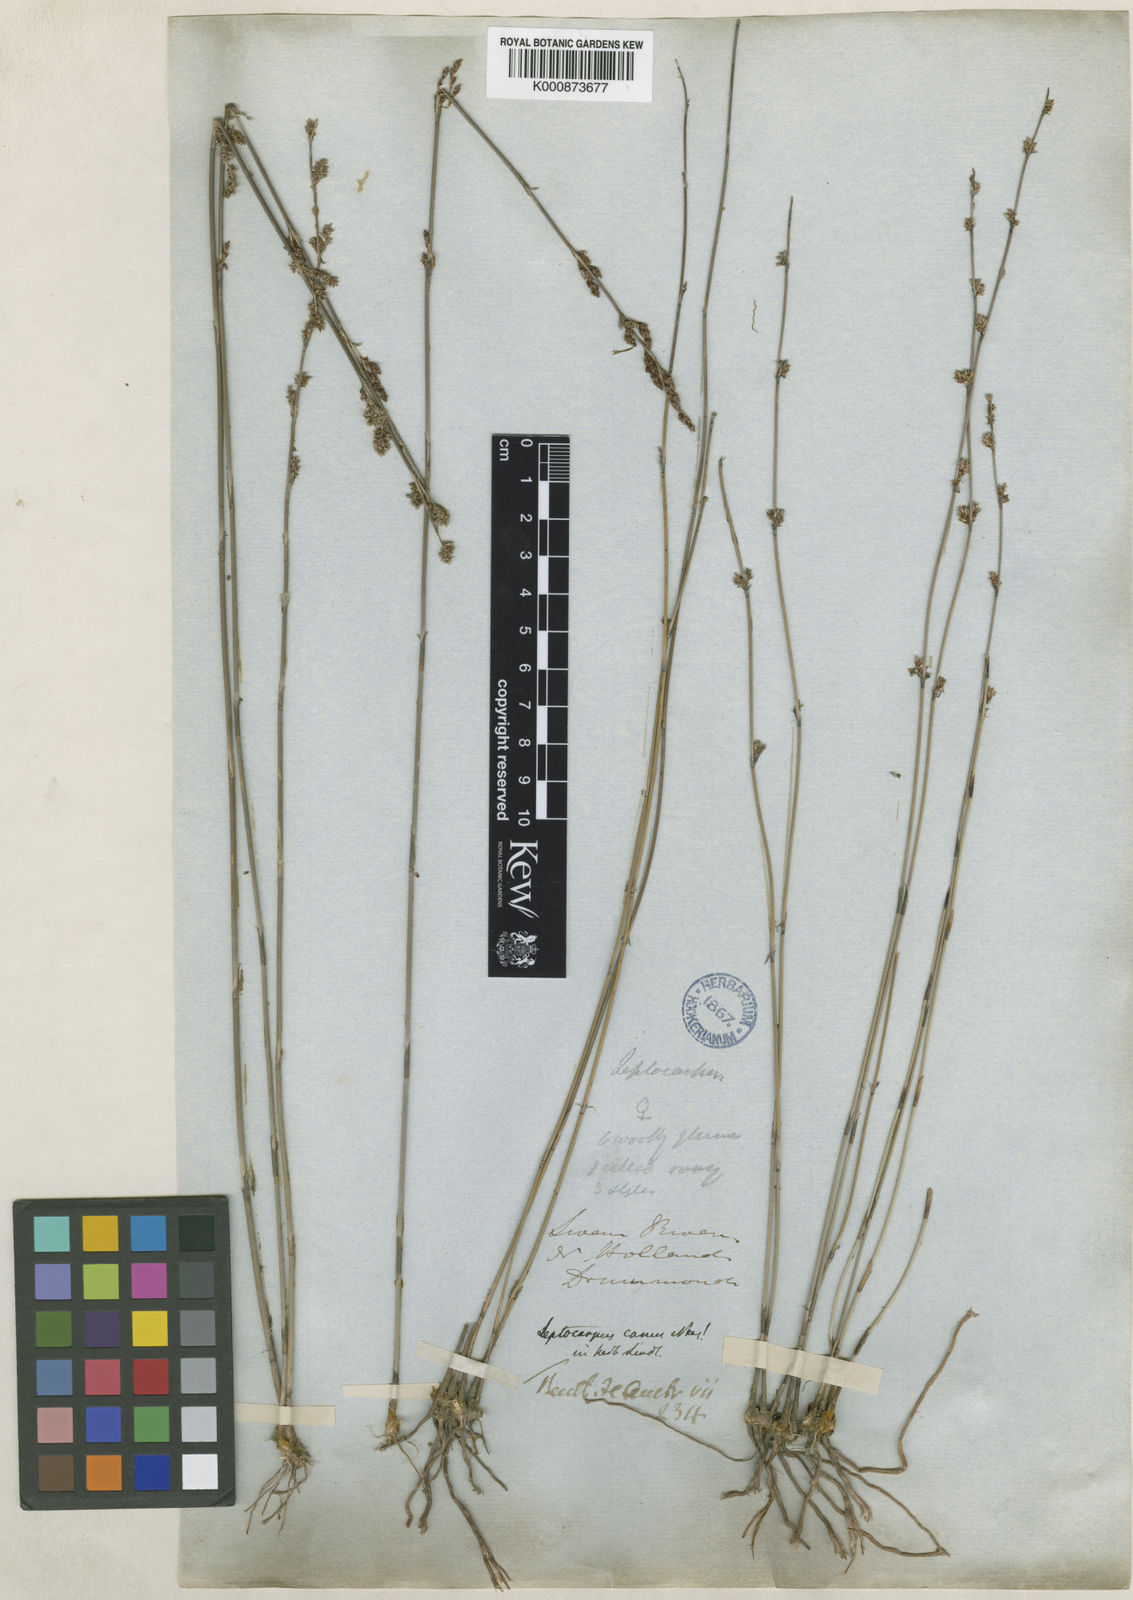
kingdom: Plantae
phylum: Tracheophyta
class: Liliopsida
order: Poales
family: Restionaceae
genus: Leptocarpus
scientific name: Leptocarpus canus
